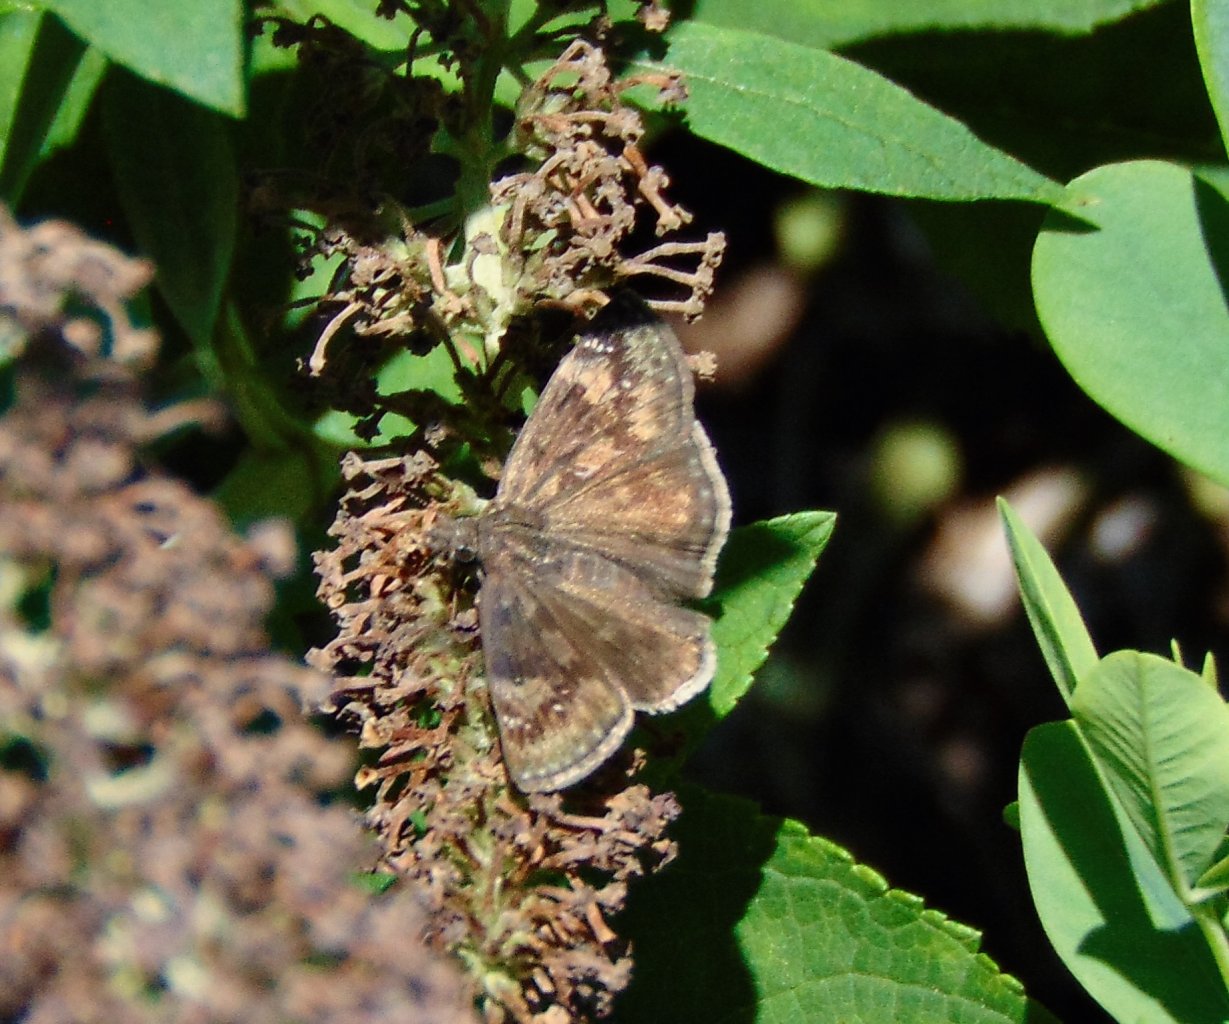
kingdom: Animalia
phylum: Arthropoda
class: Insecta
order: Lepidoptera
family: Hesperiidae
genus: Gesta
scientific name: Gesta
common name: Wild Indigo Duskywing
